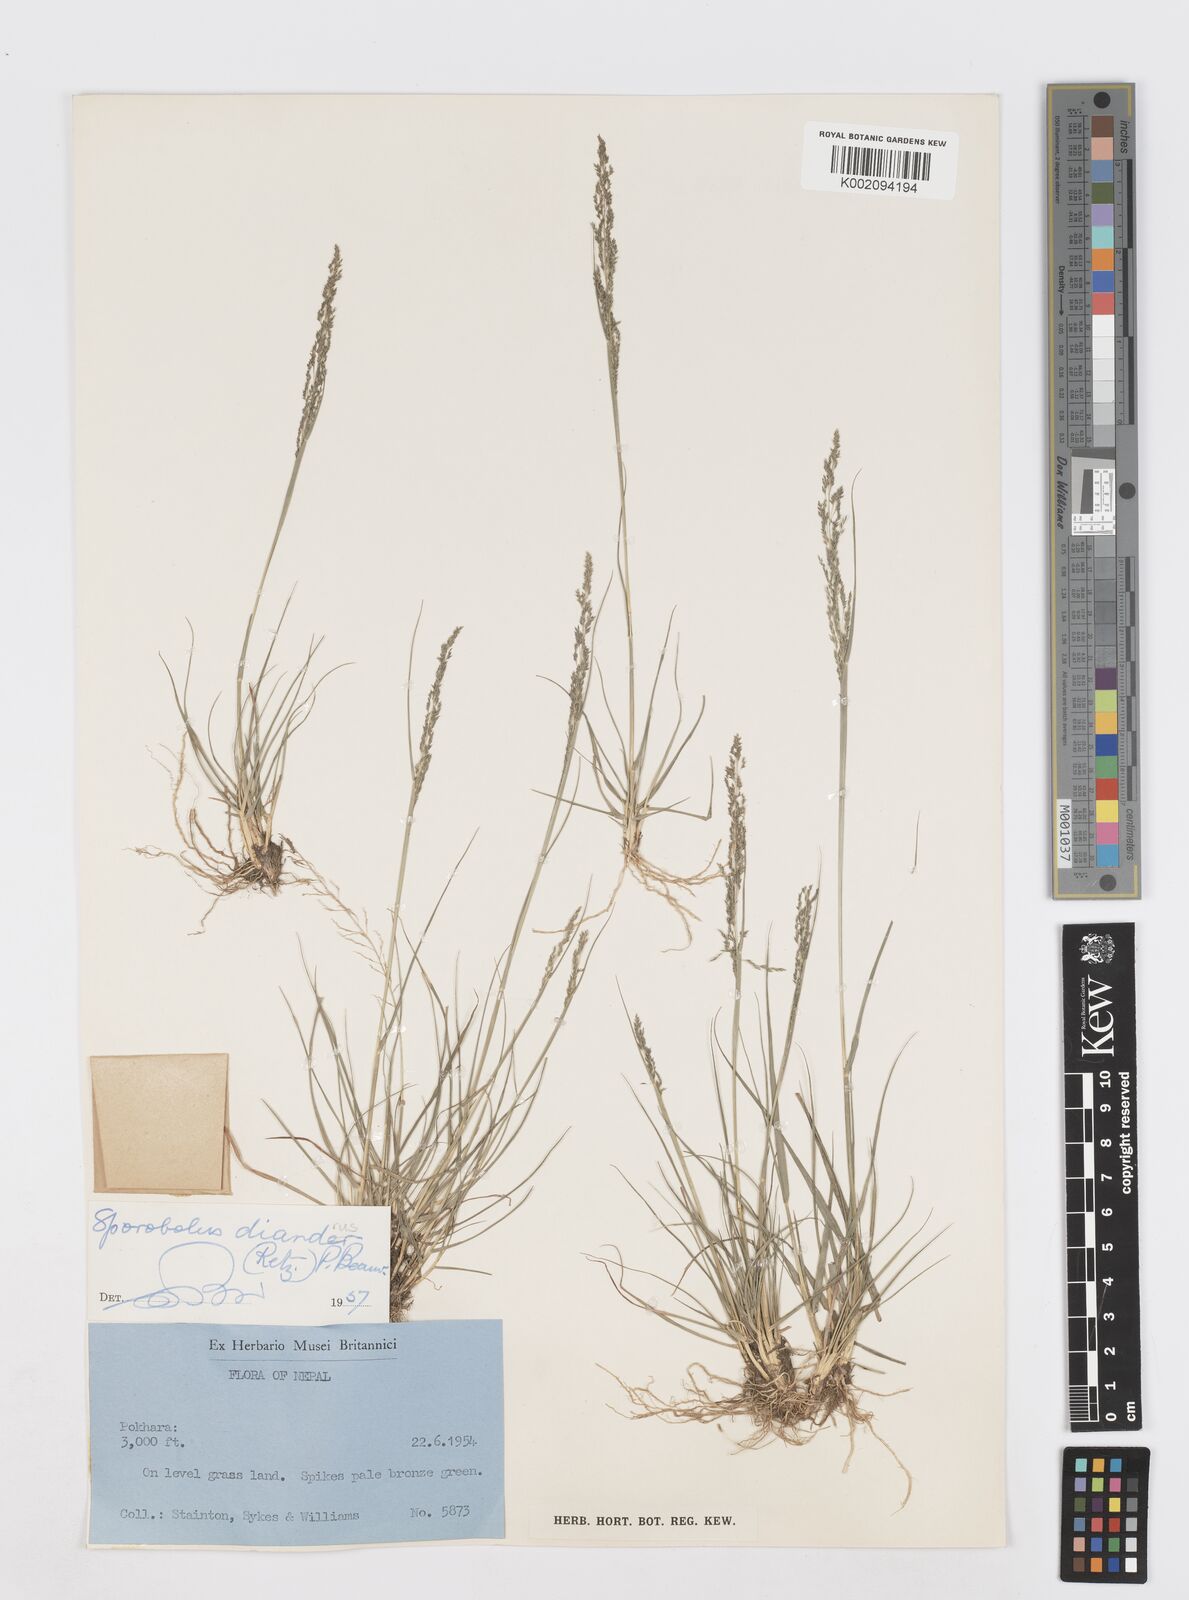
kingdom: Plantae
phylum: Tracheophyta
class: Liliopsida
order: Poales
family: Poaceae
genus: Sporobolus
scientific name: Sporobolus diandrus
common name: Tussock dropseed
